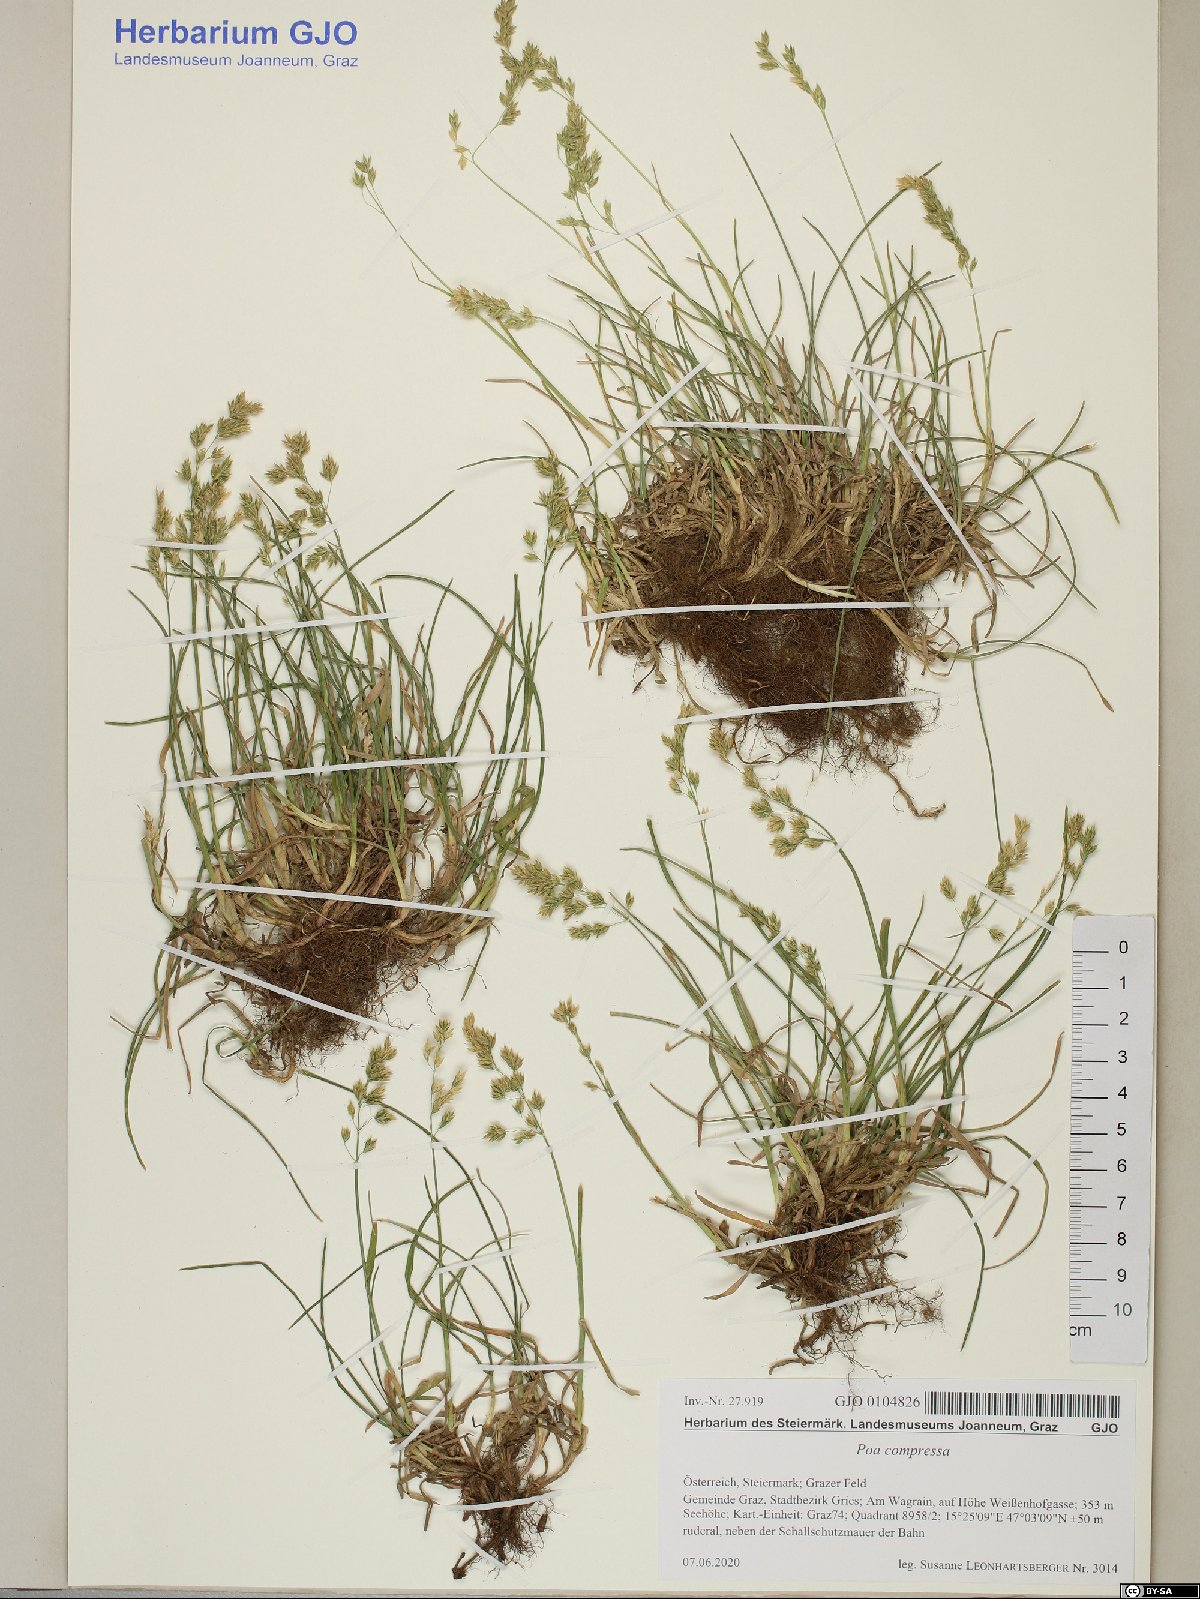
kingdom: Plantae
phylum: Tracheophyta
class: Liliopsida
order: Poales
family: Poaceae
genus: Poa
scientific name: Poa compressa
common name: Canada bluegrass
